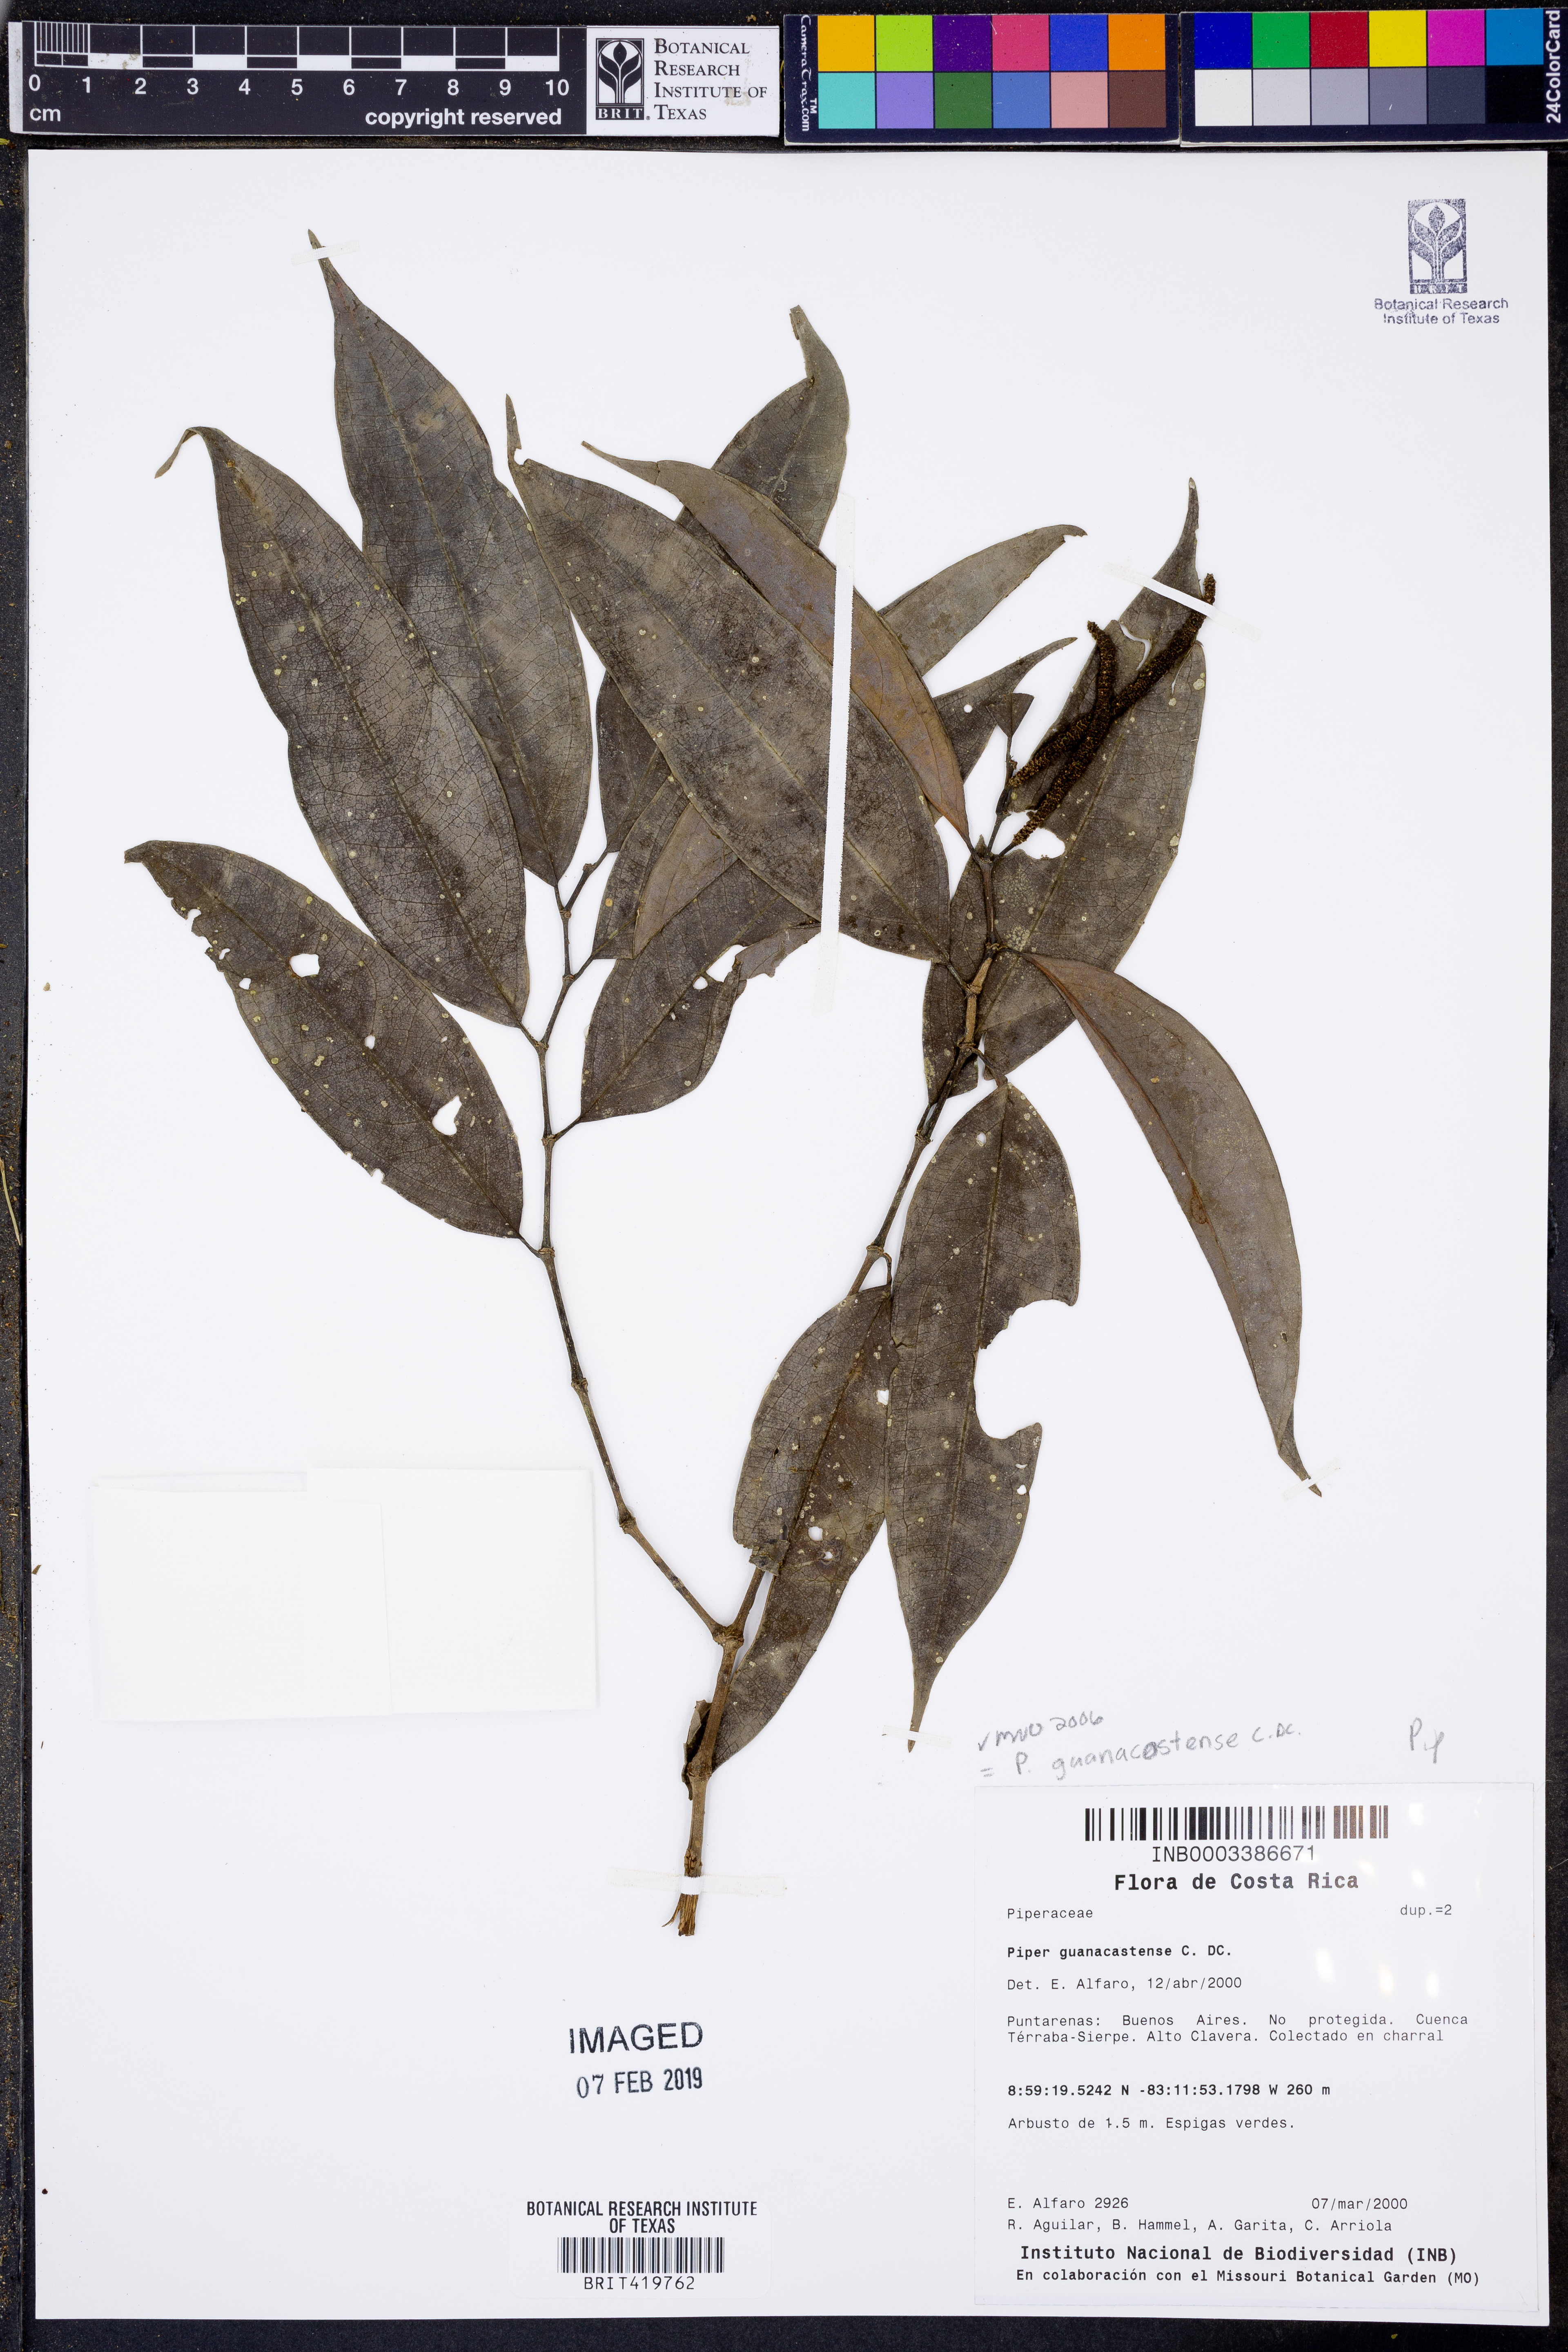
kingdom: Plantae
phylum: Tracheophyta
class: Magnoliopsida
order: Piperales
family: Piperaceae
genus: Piper
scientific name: Piper guanacostense
